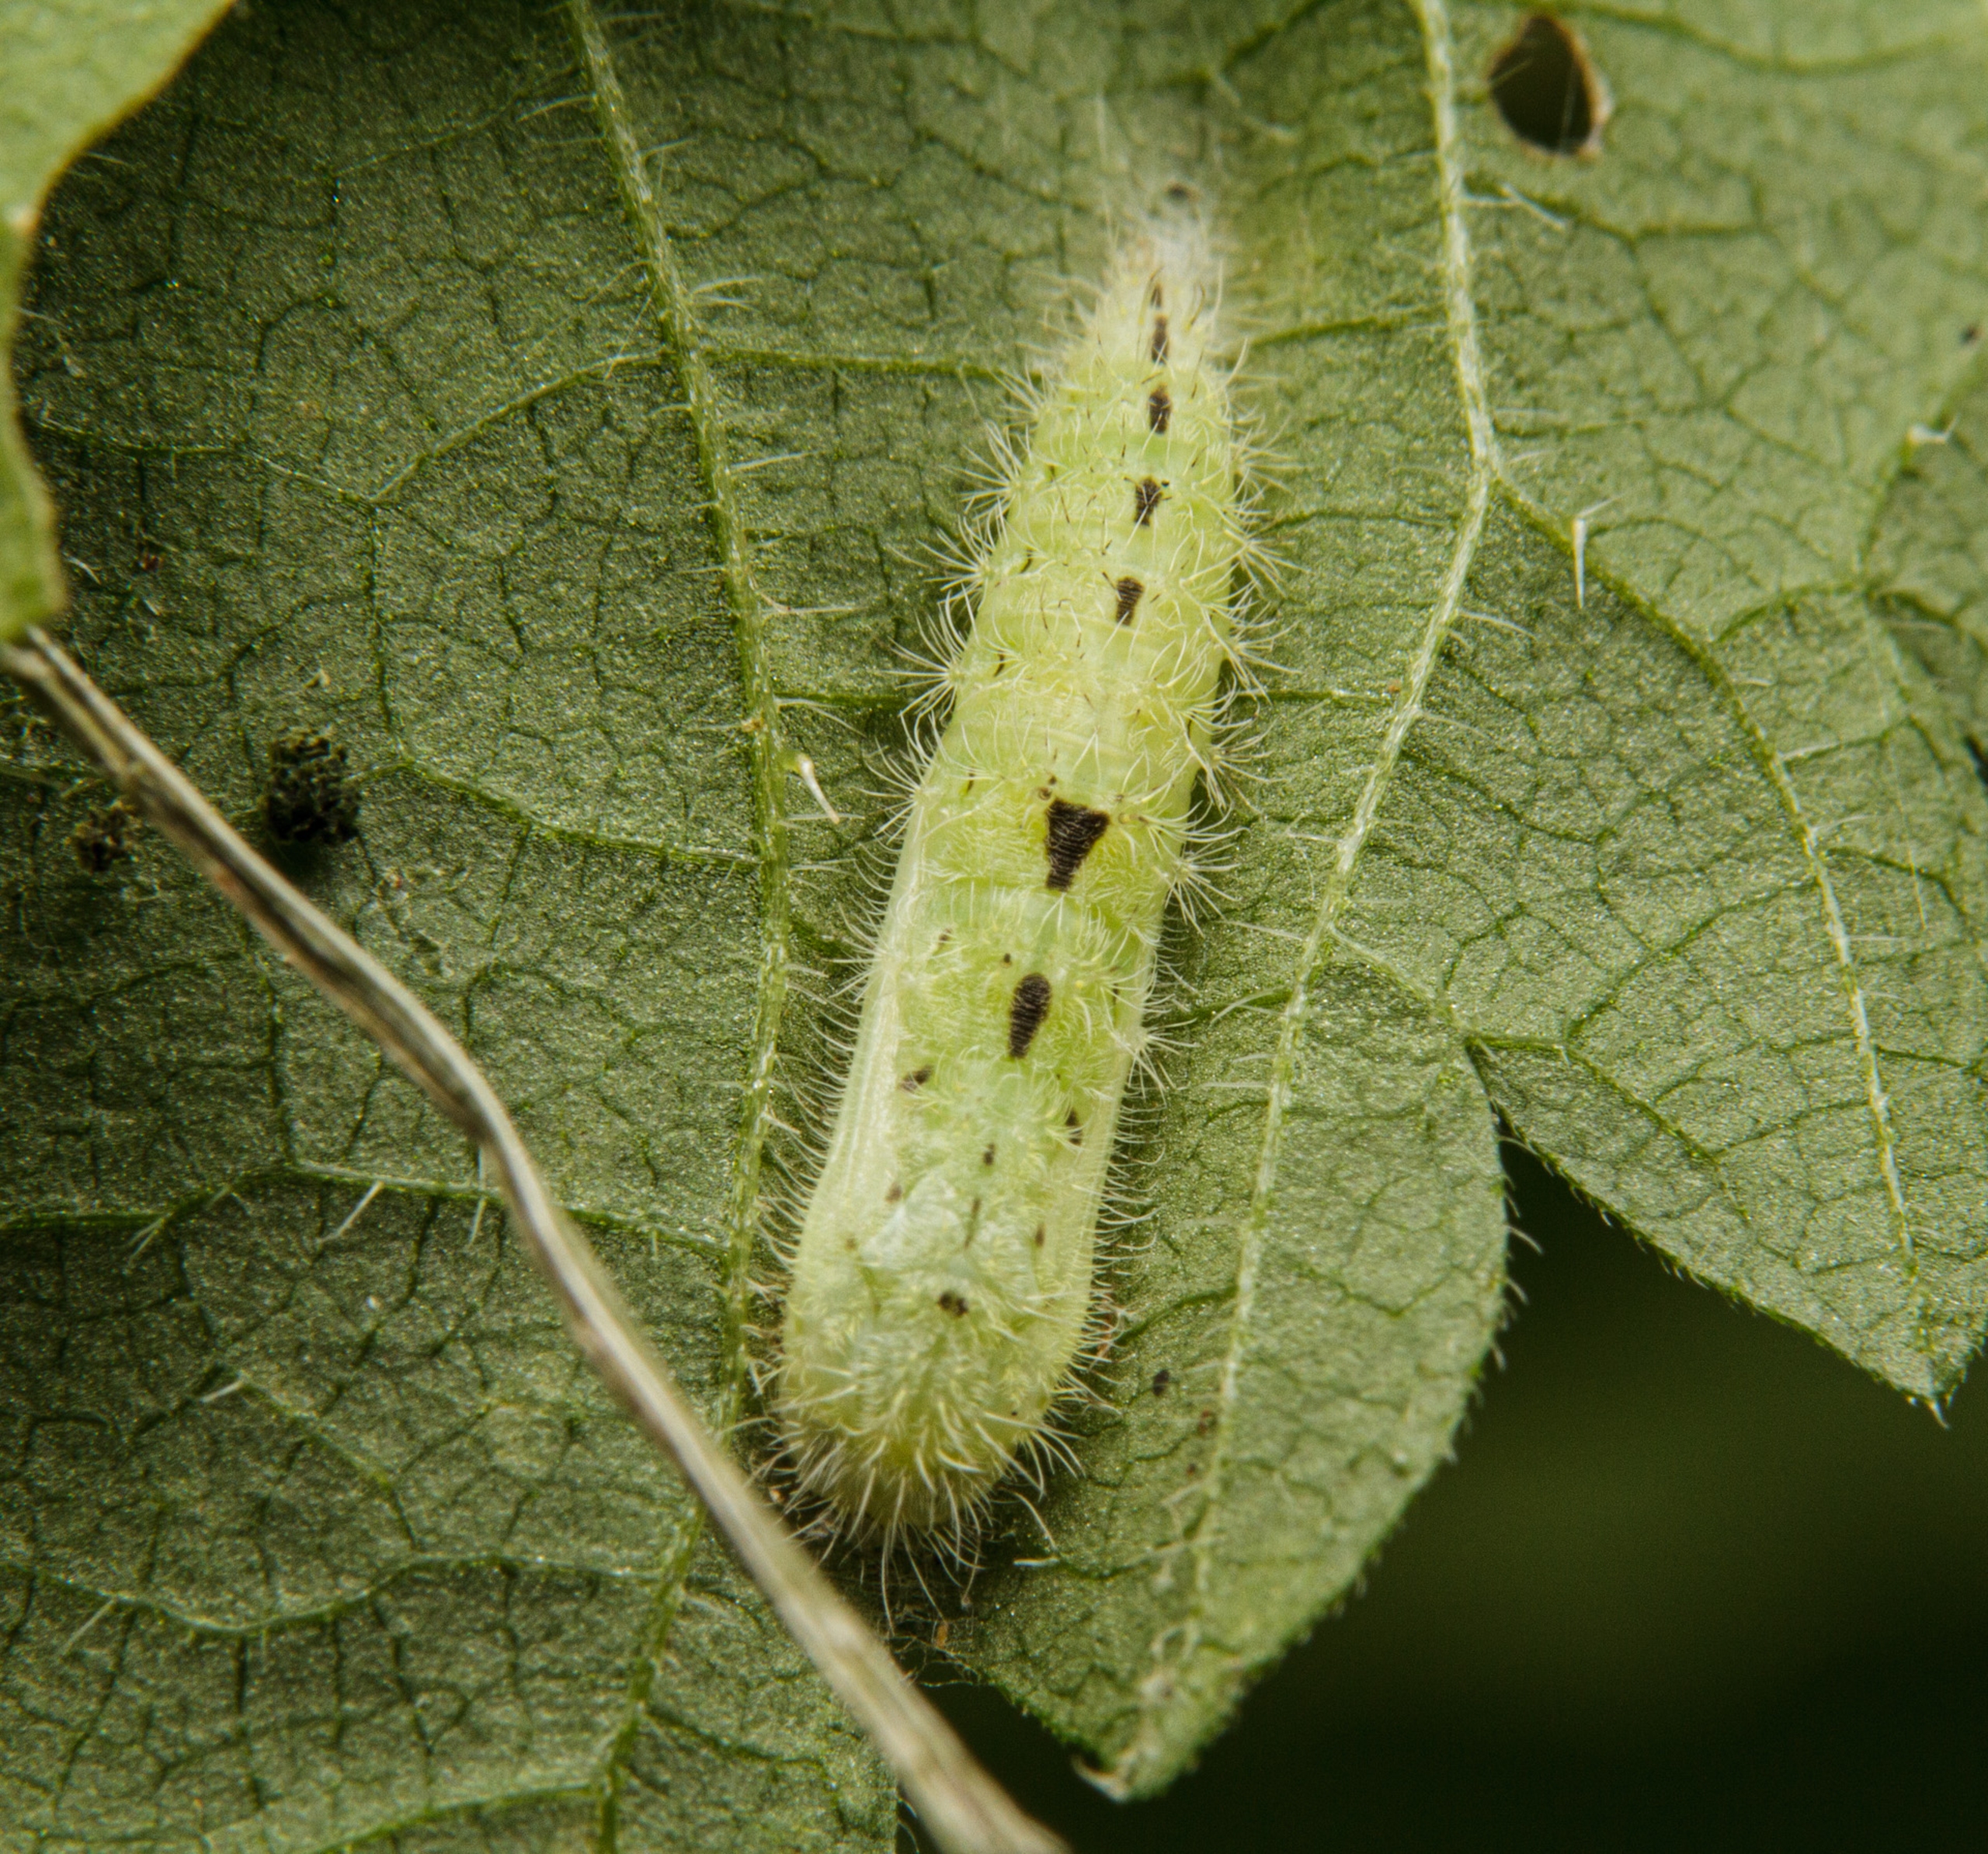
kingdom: Animalia
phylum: Arthropoda
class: Insecta
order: Lepidoptera
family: Pterophoridae
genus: Emmelina
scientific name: Emmelina monodactyla
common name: Snerlefjermøl
